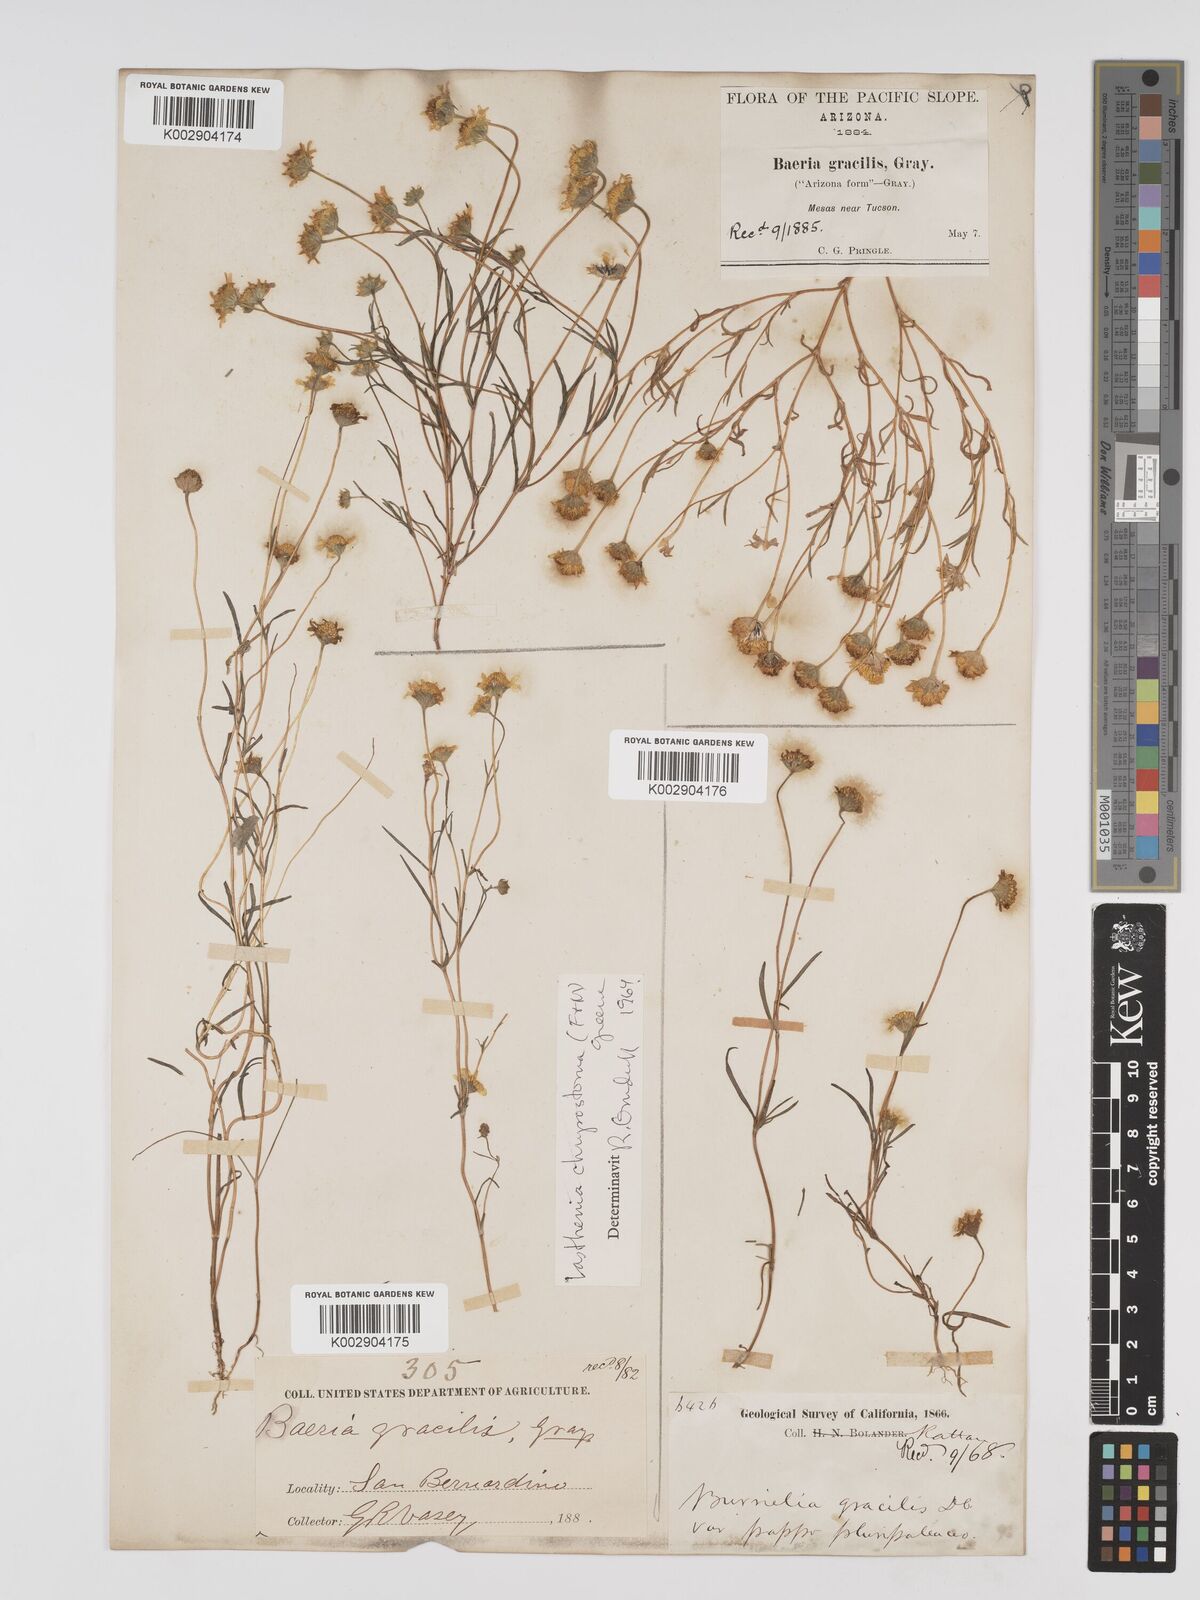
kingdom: Plantae
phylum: Tracheophyta
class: Magnoliopsida
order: Asterales
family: Asteraceae
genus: Lasthenia
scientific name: Lasthenia californica
